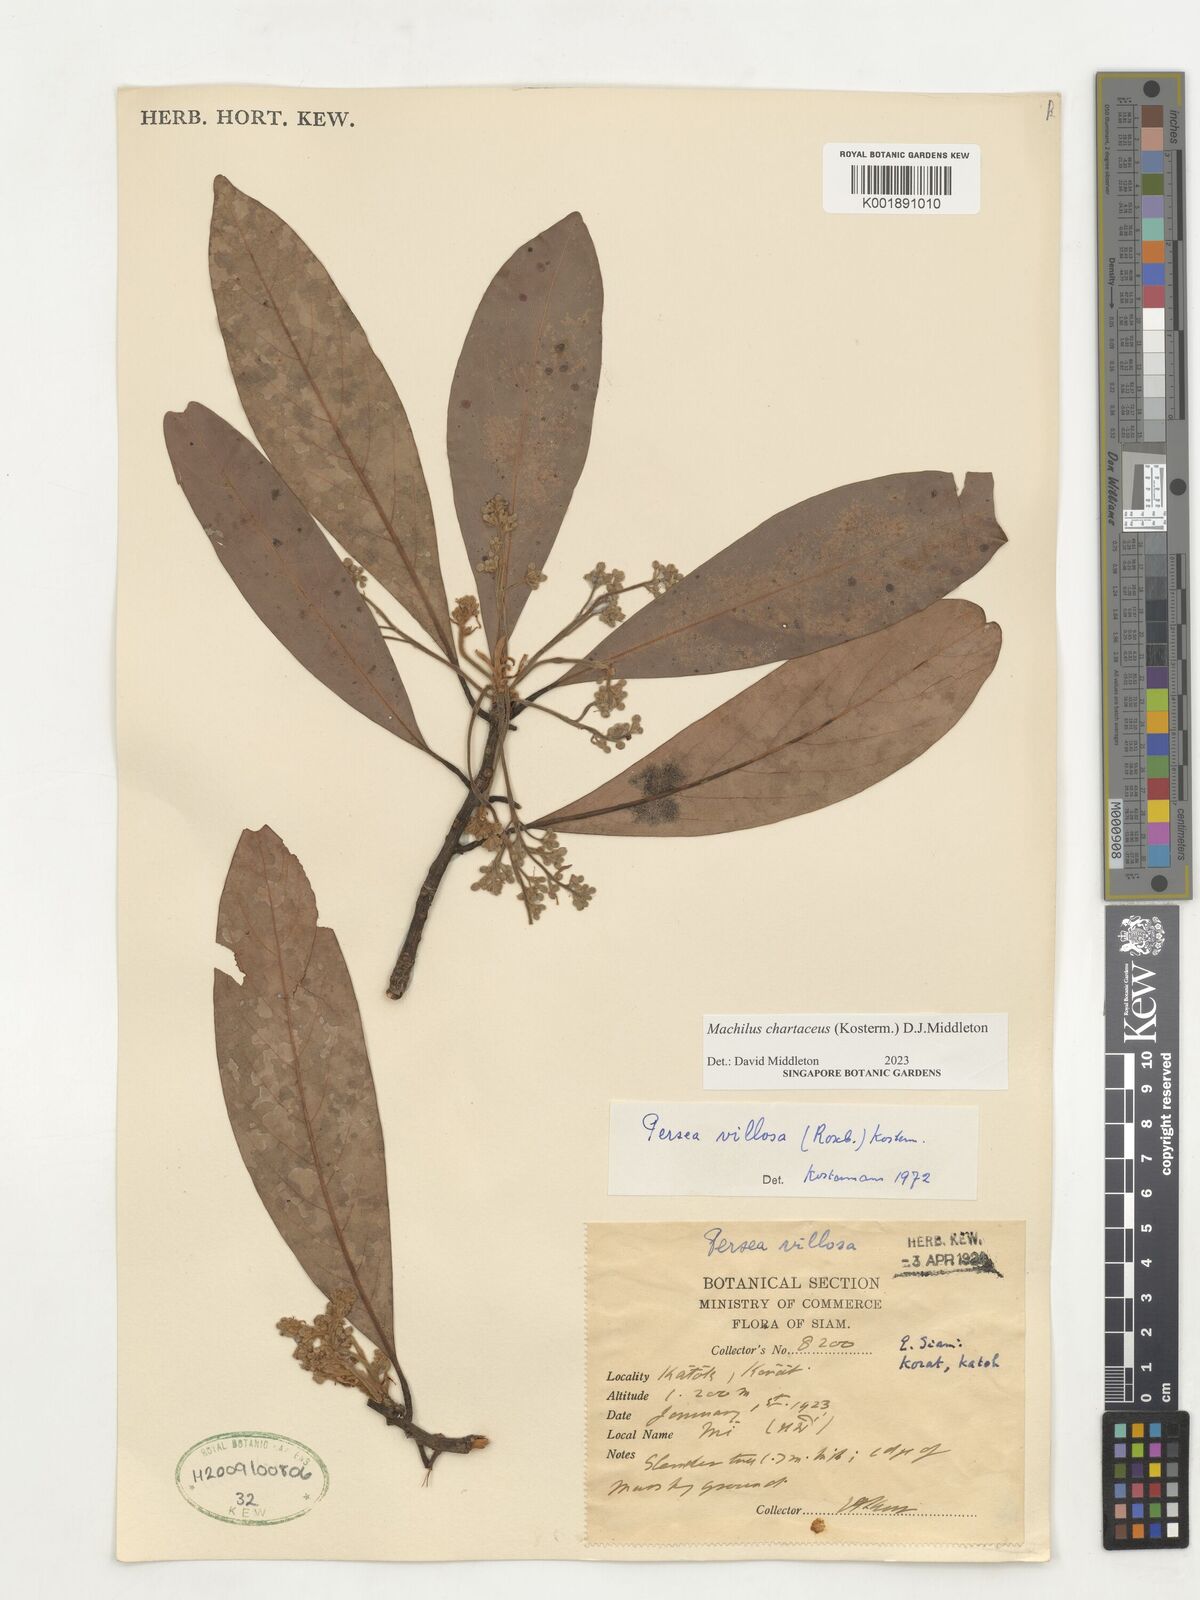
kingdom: Plantae
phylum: Tracheophyta
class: Magnoliopsida
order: Laurales
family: Lauraceae
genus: Machilus
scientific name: Machilus
